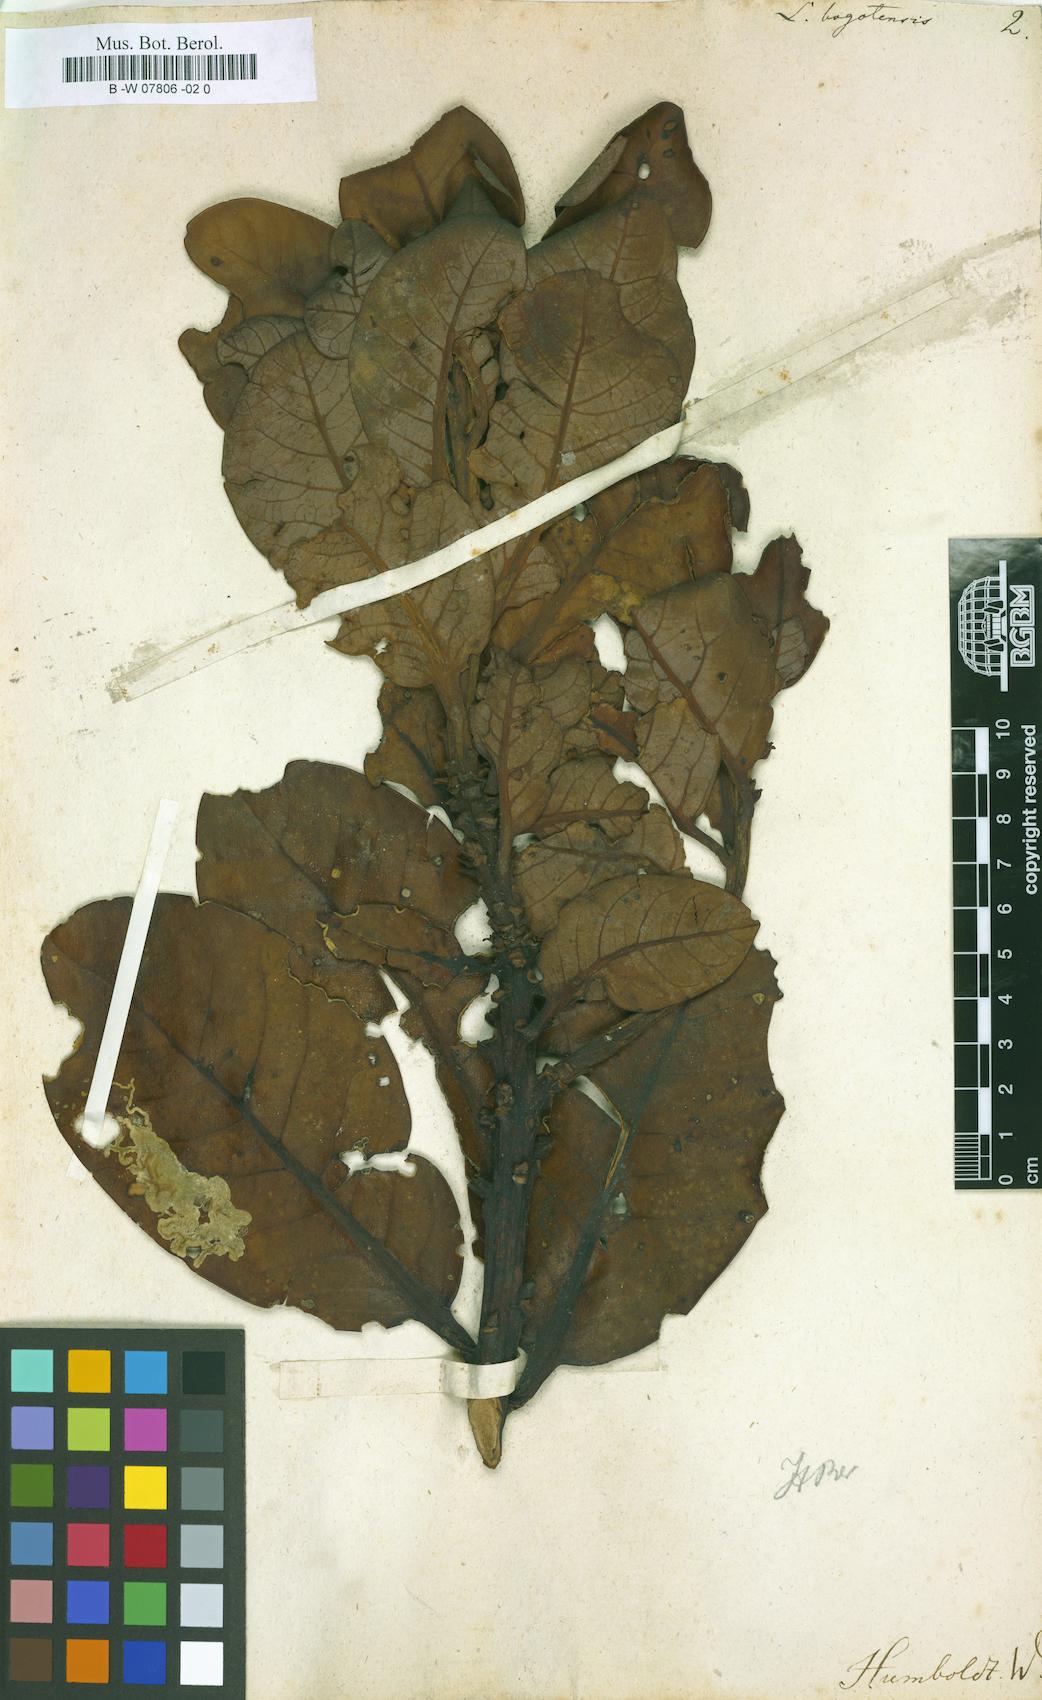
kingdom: Plantae
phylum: Tracheophyta
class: Magnoliopsida
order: Laurales
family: Lauraceae
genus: Persea
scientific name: Persea mutisii
